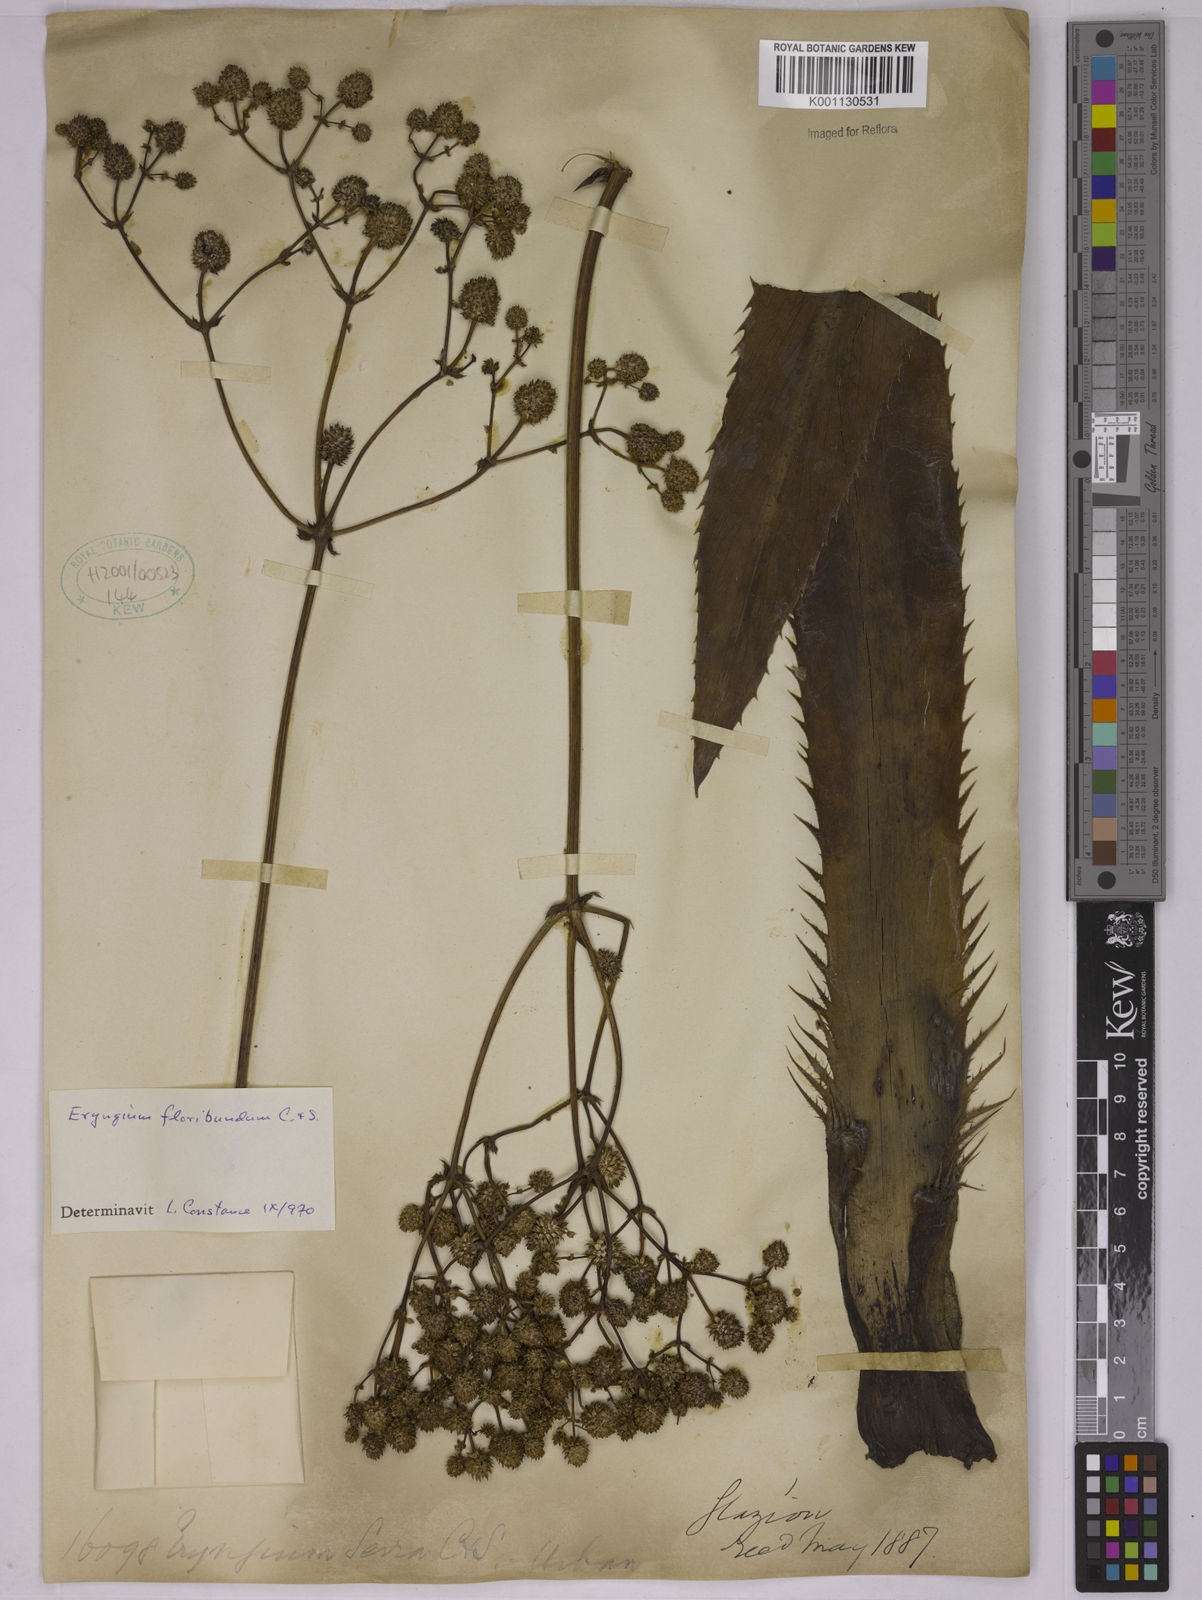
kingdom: Plantae
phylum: Tracheophyta
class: Magnoliopsida
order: Apiales
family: Apiaceae
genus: Eryngium
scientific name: Eryngium floribundum
